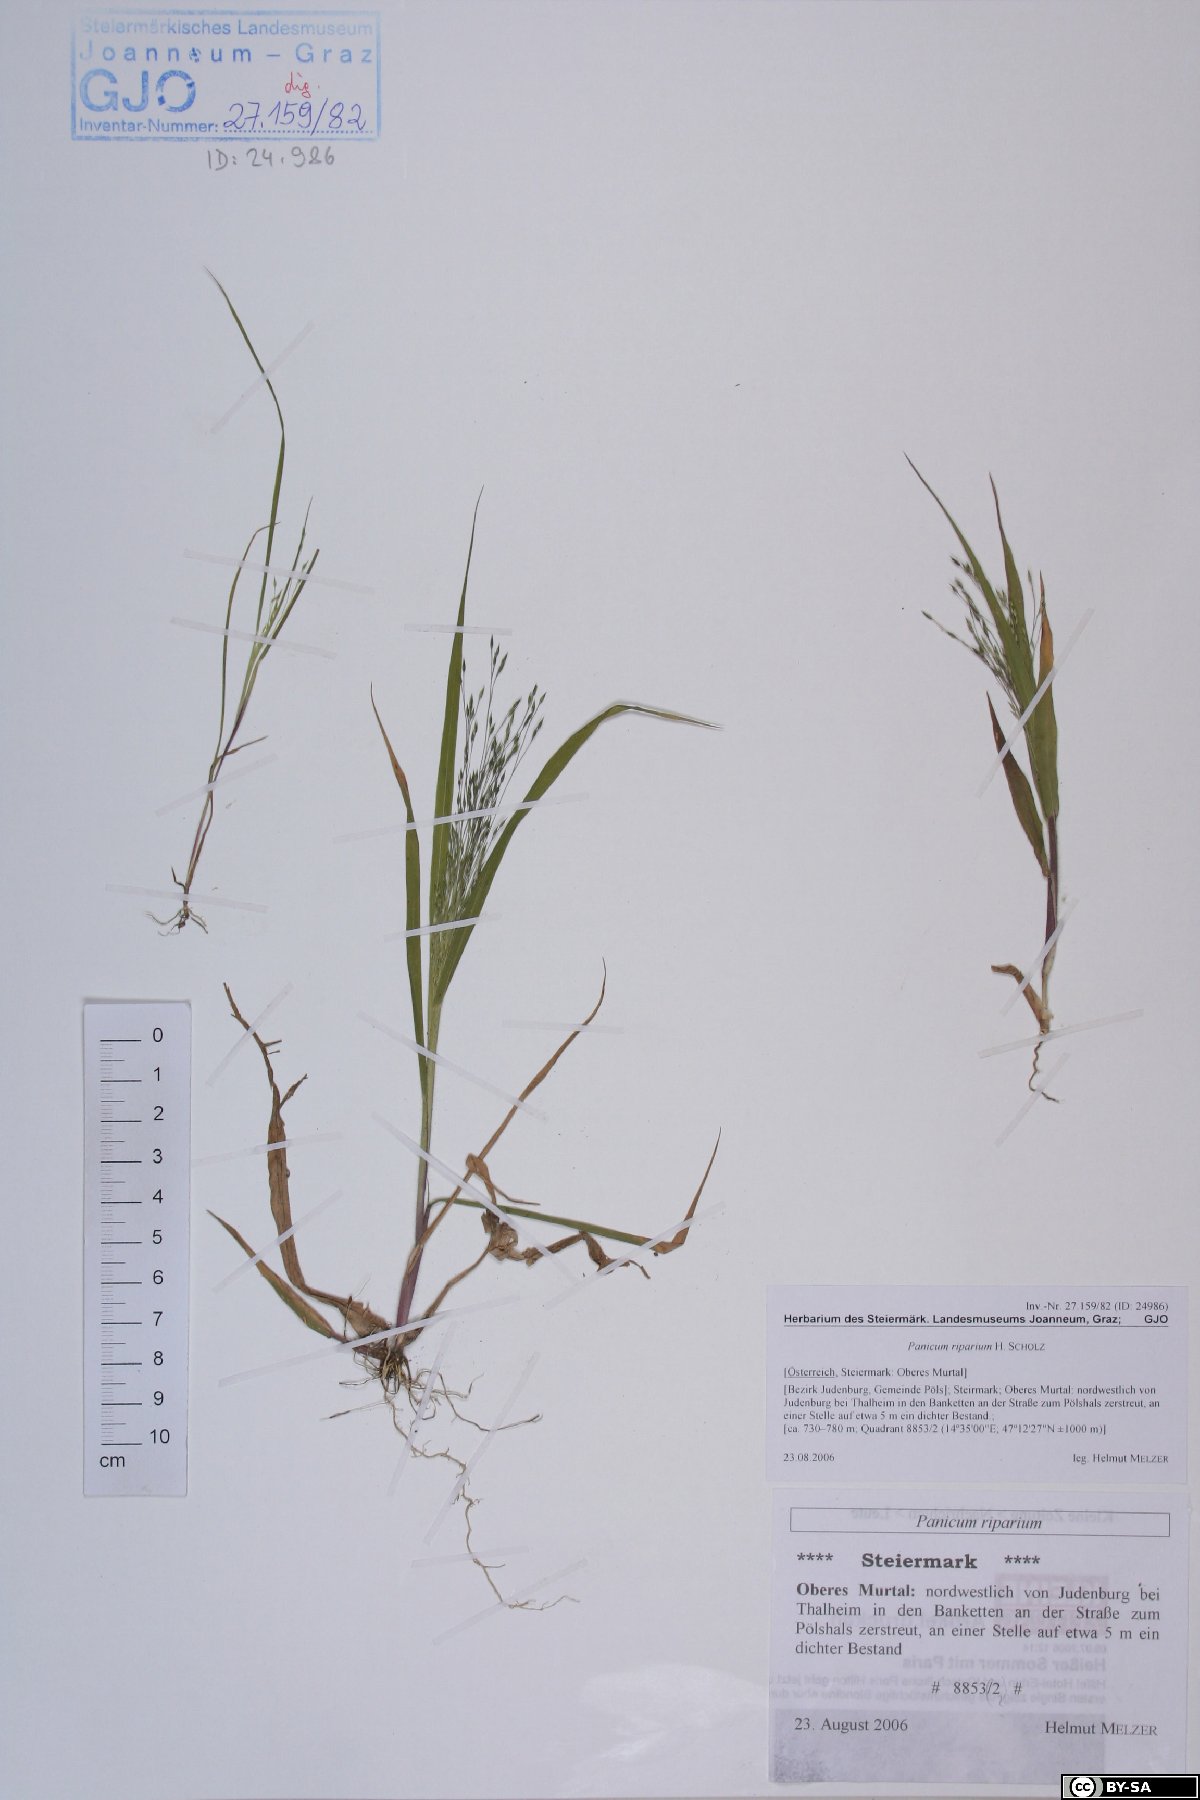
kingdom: Plantae
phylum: Tracheophyta
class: Liliopsida
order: Poales
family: Cyperaceae
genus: Carex
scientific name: Carex bohemica
